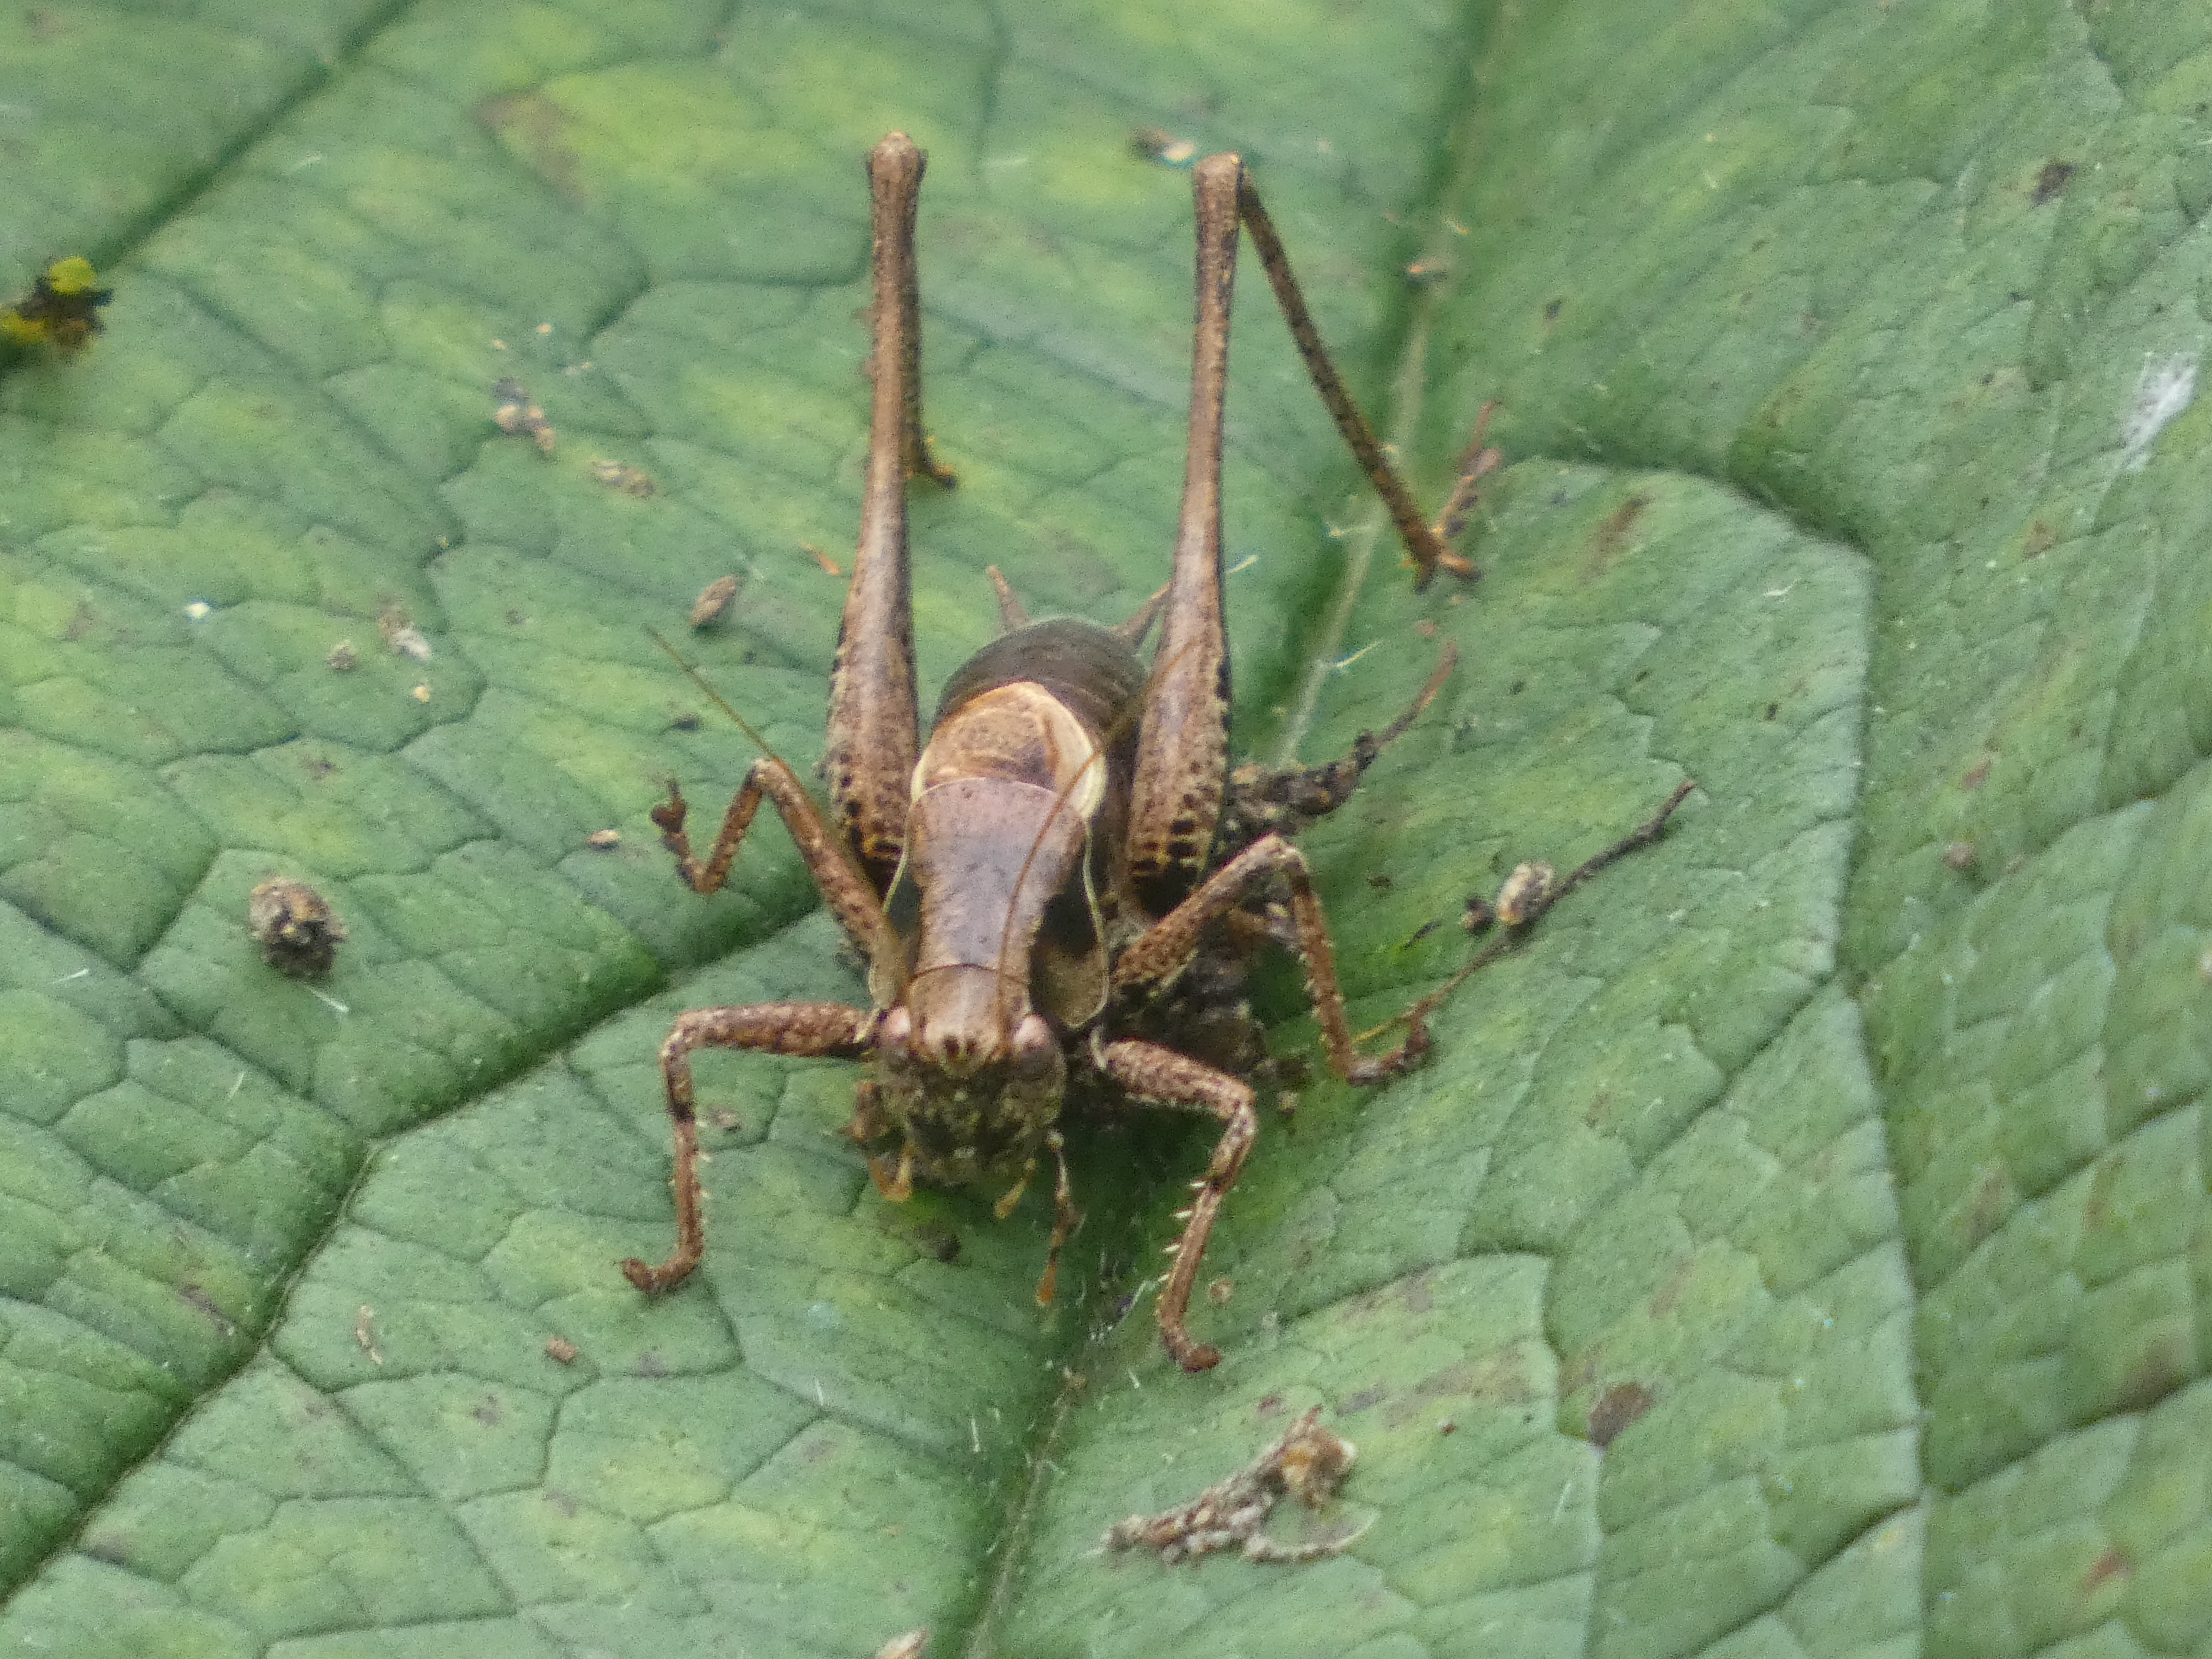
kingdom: Animalia
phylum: Arthropoda
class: Insecta
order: Orthoptera
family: Tettigoniidae
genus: Pholidoptera
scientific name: Pholidoptera griseoaptera
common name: Buskgræshoppe
